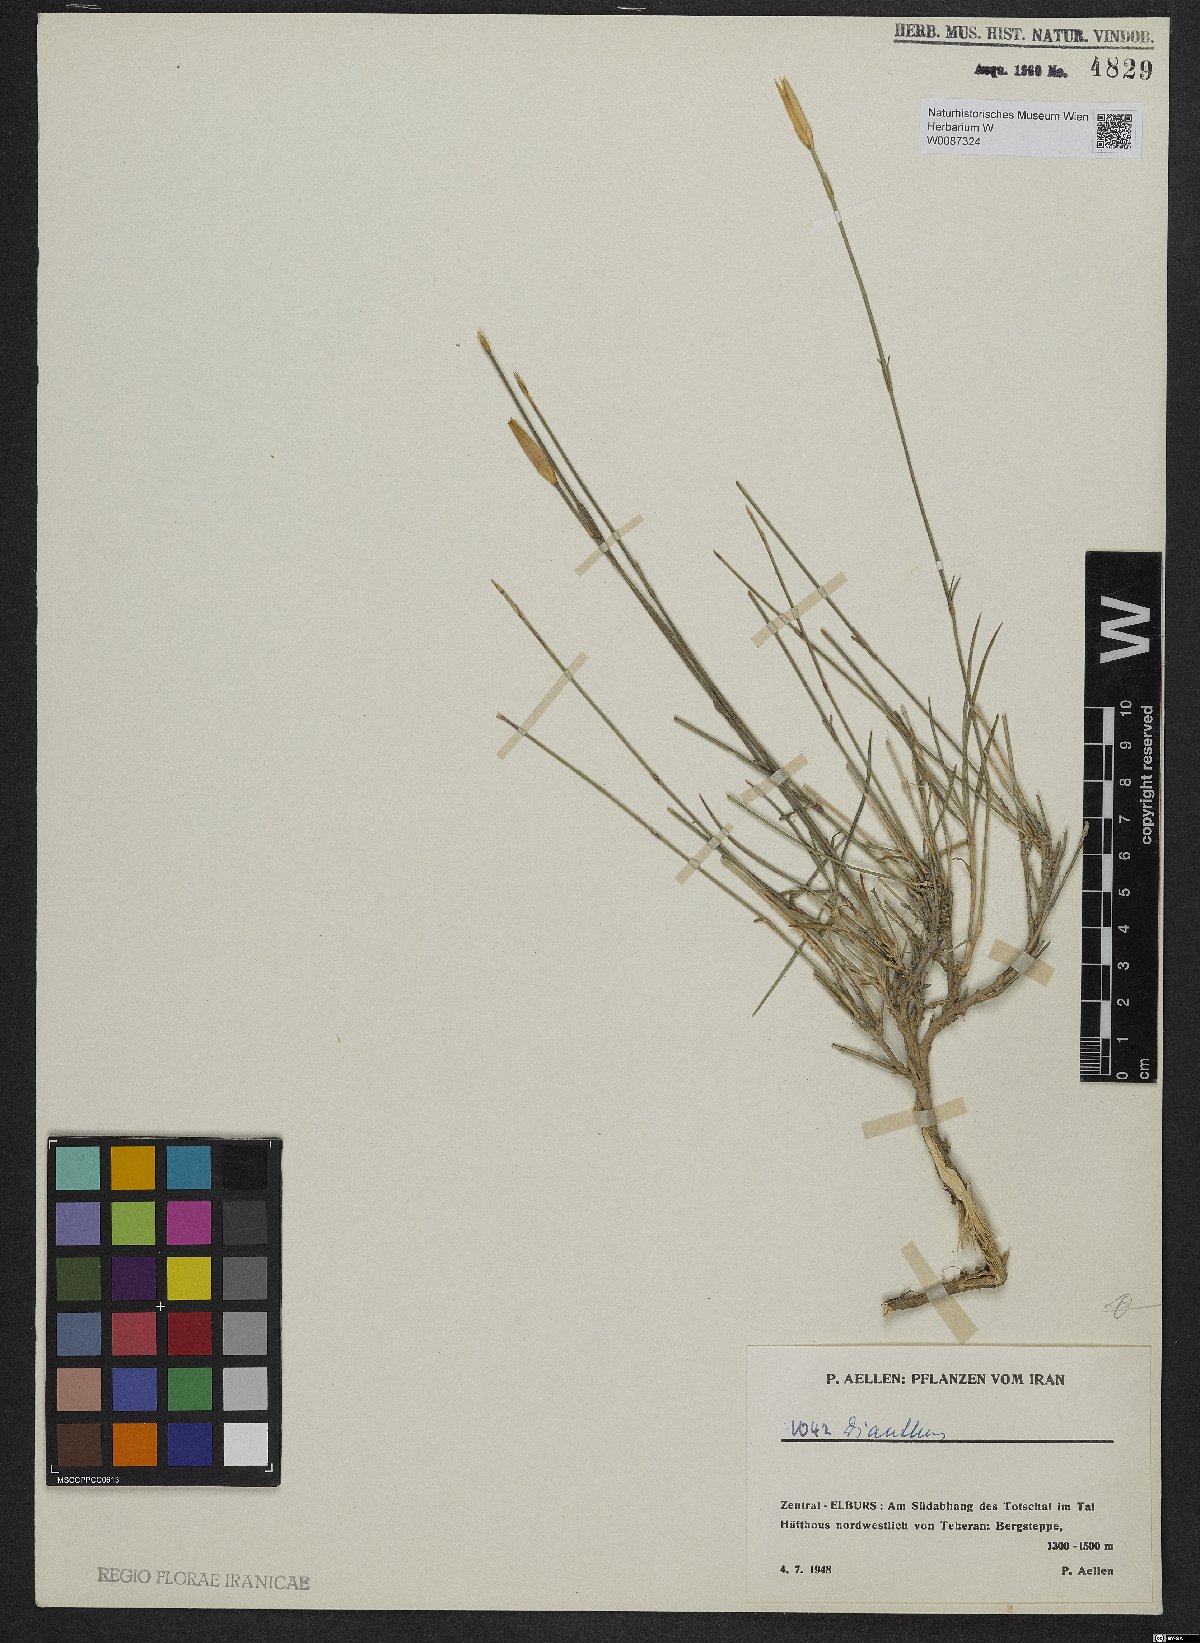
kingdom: Plantae
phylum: Tracheophyta
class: Magnoliopsida
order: Caryophyllales
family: Caryophyllaceae
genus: Dianthus
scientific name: Dianthus
